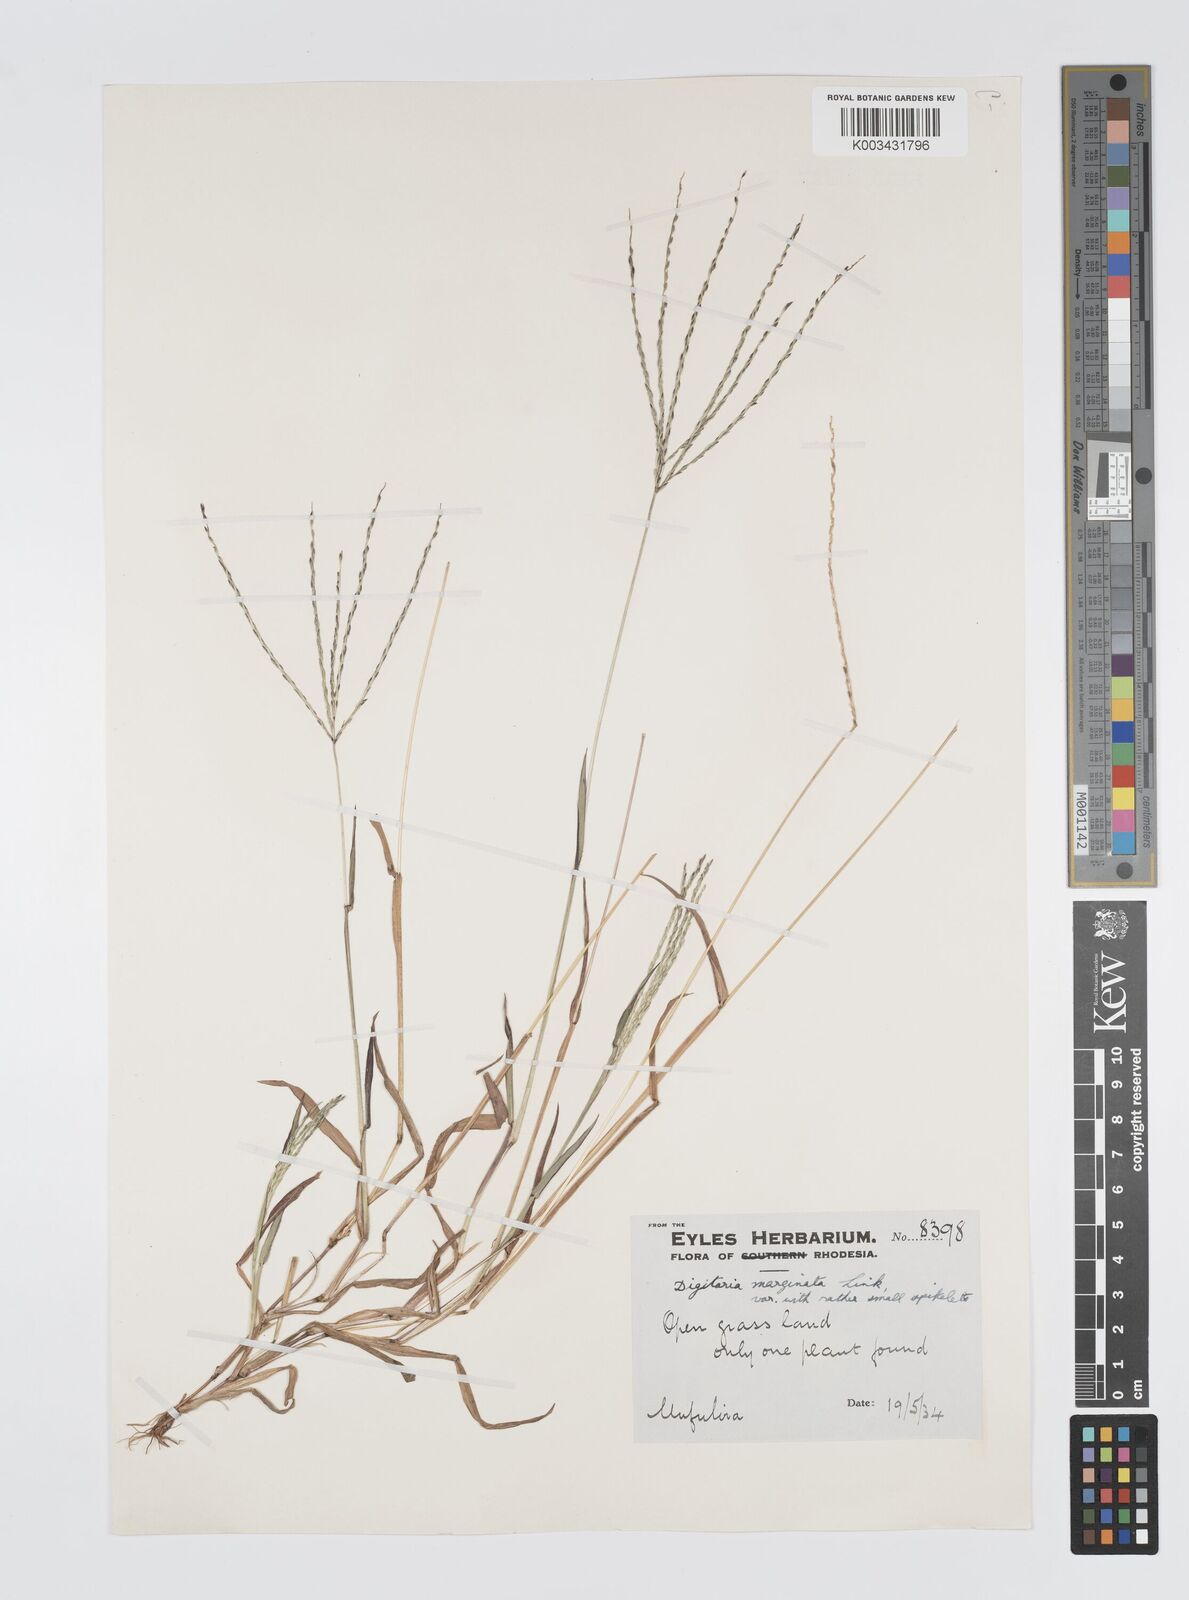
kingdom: Plantae
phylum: Tracheophyta
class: Liliopsida
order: Poales
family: Poaceae
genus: Digitaria
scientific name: Digitaria nuda
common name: Naked crabgrass
